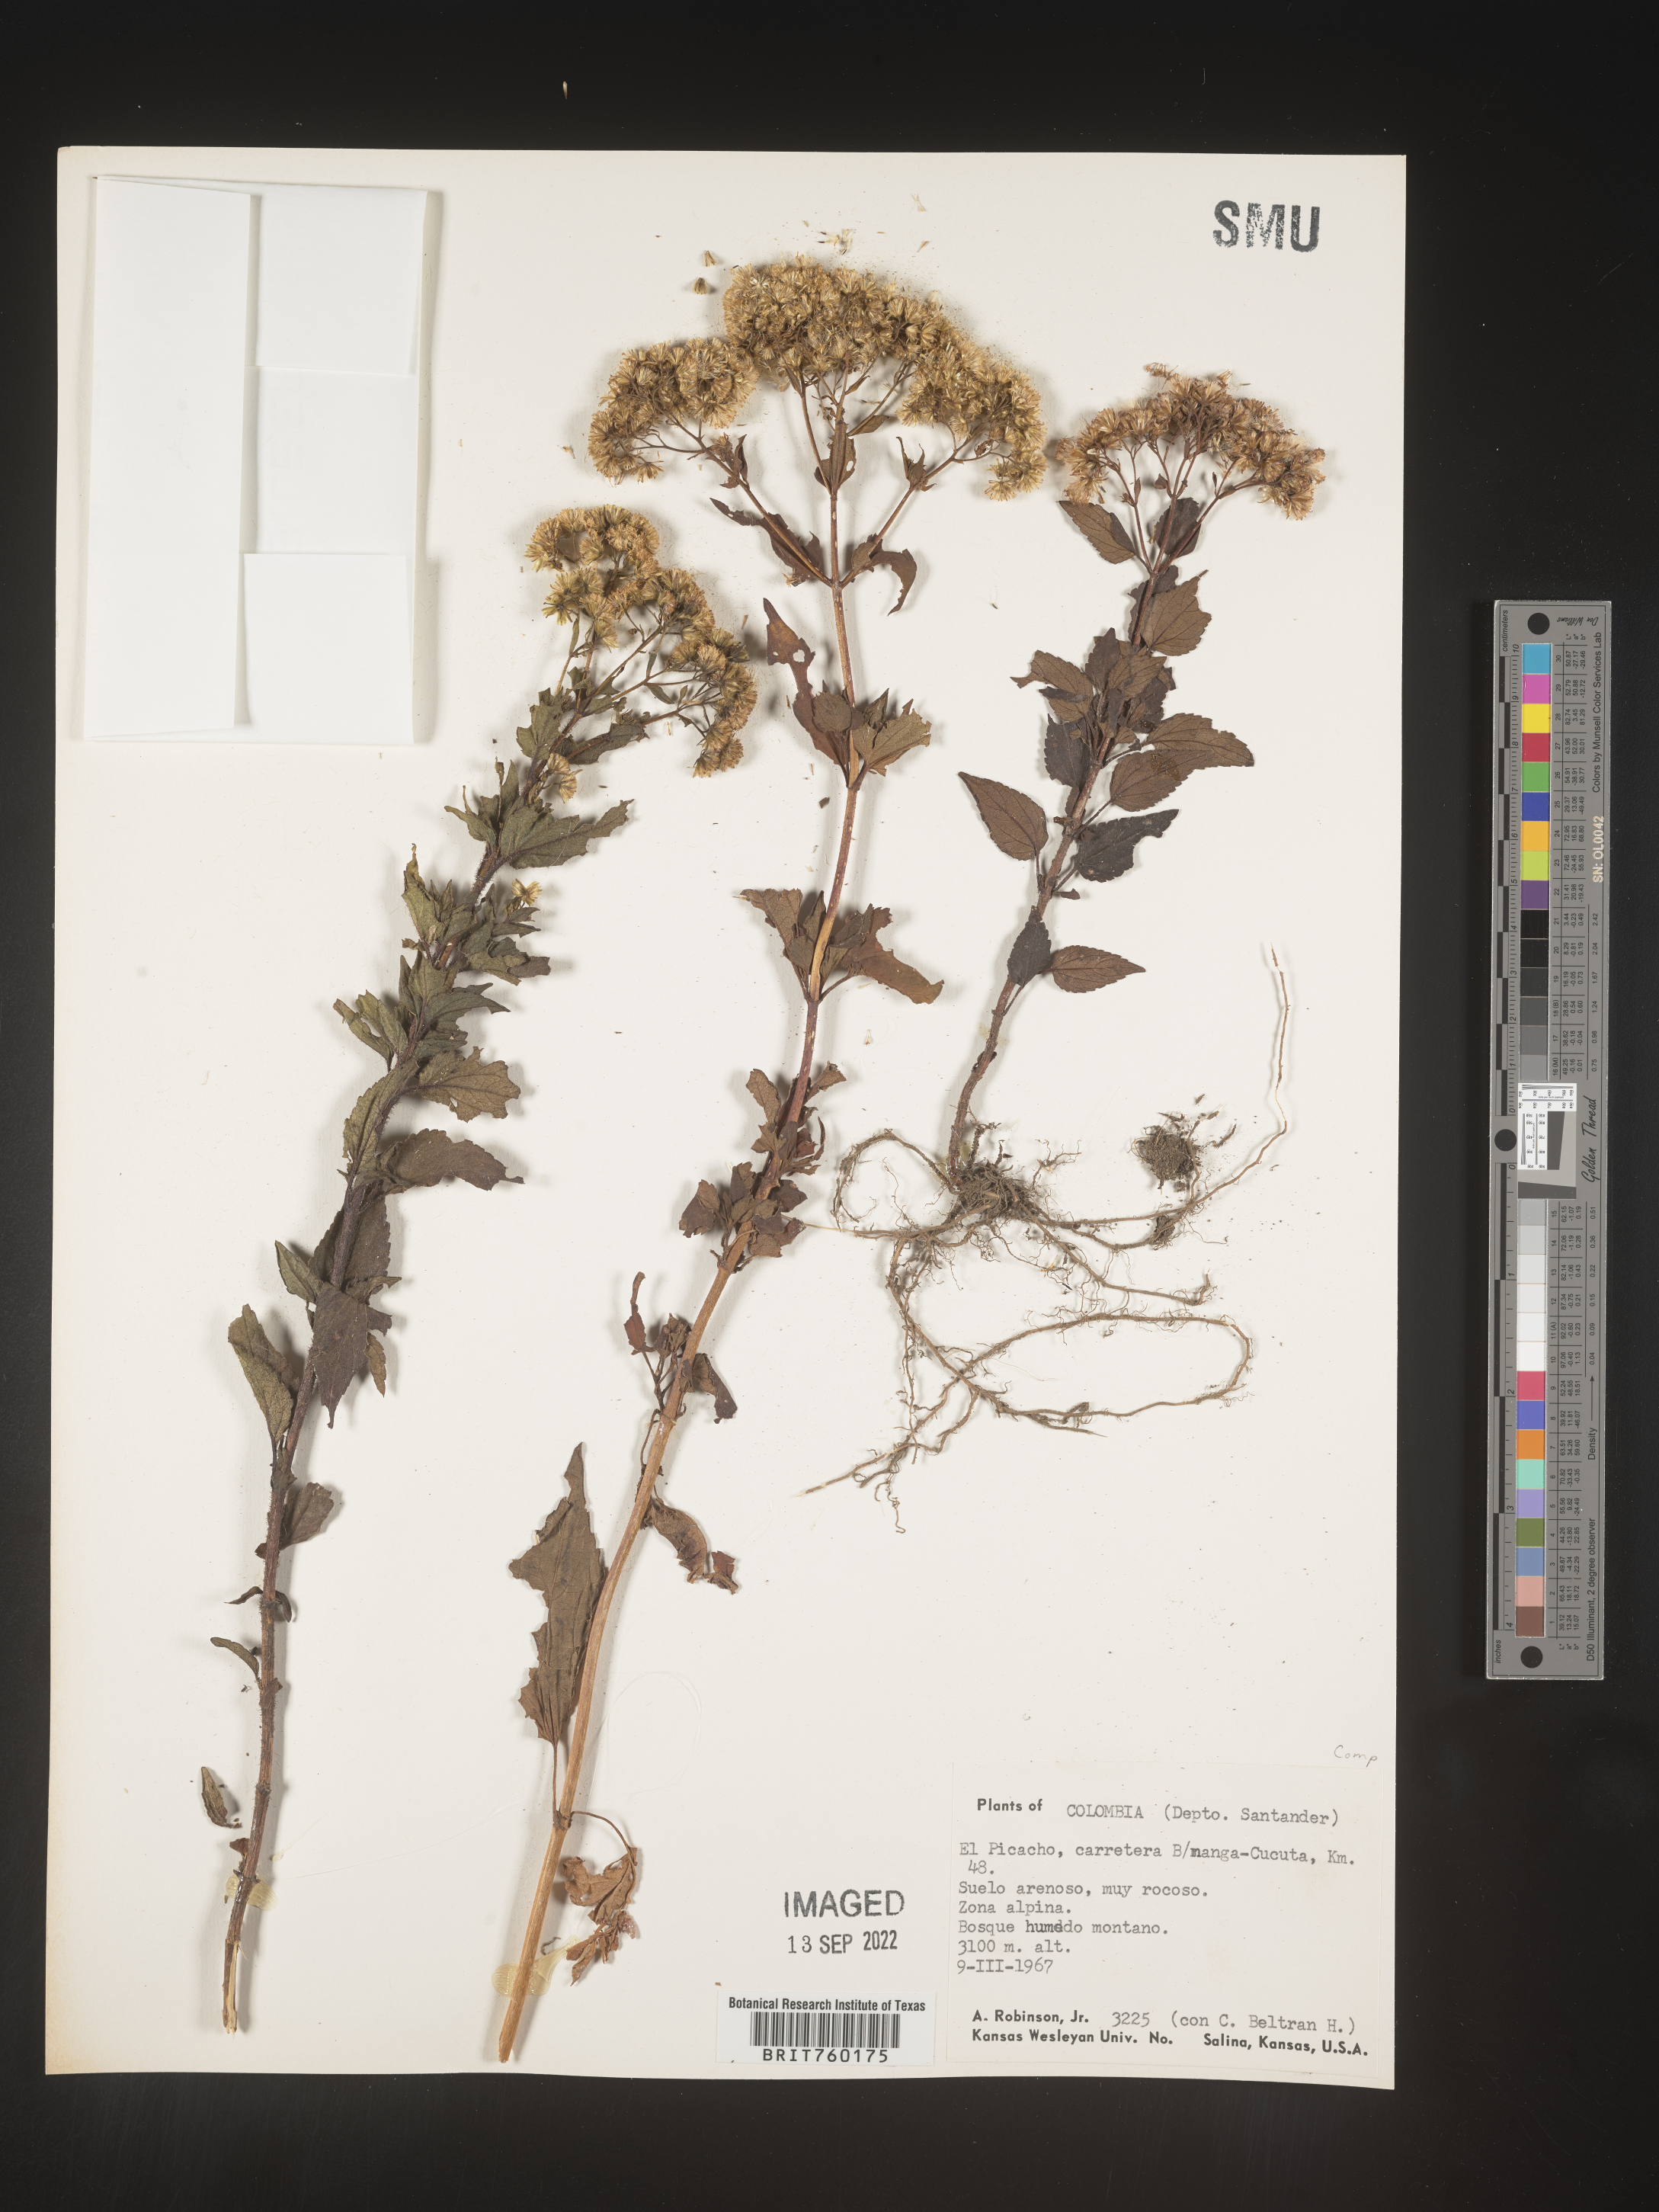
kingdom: Plantae
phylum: Tracheophyta
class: Magnoliopsida
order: Asterales
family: Asteraceae
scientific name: Asteraceae
